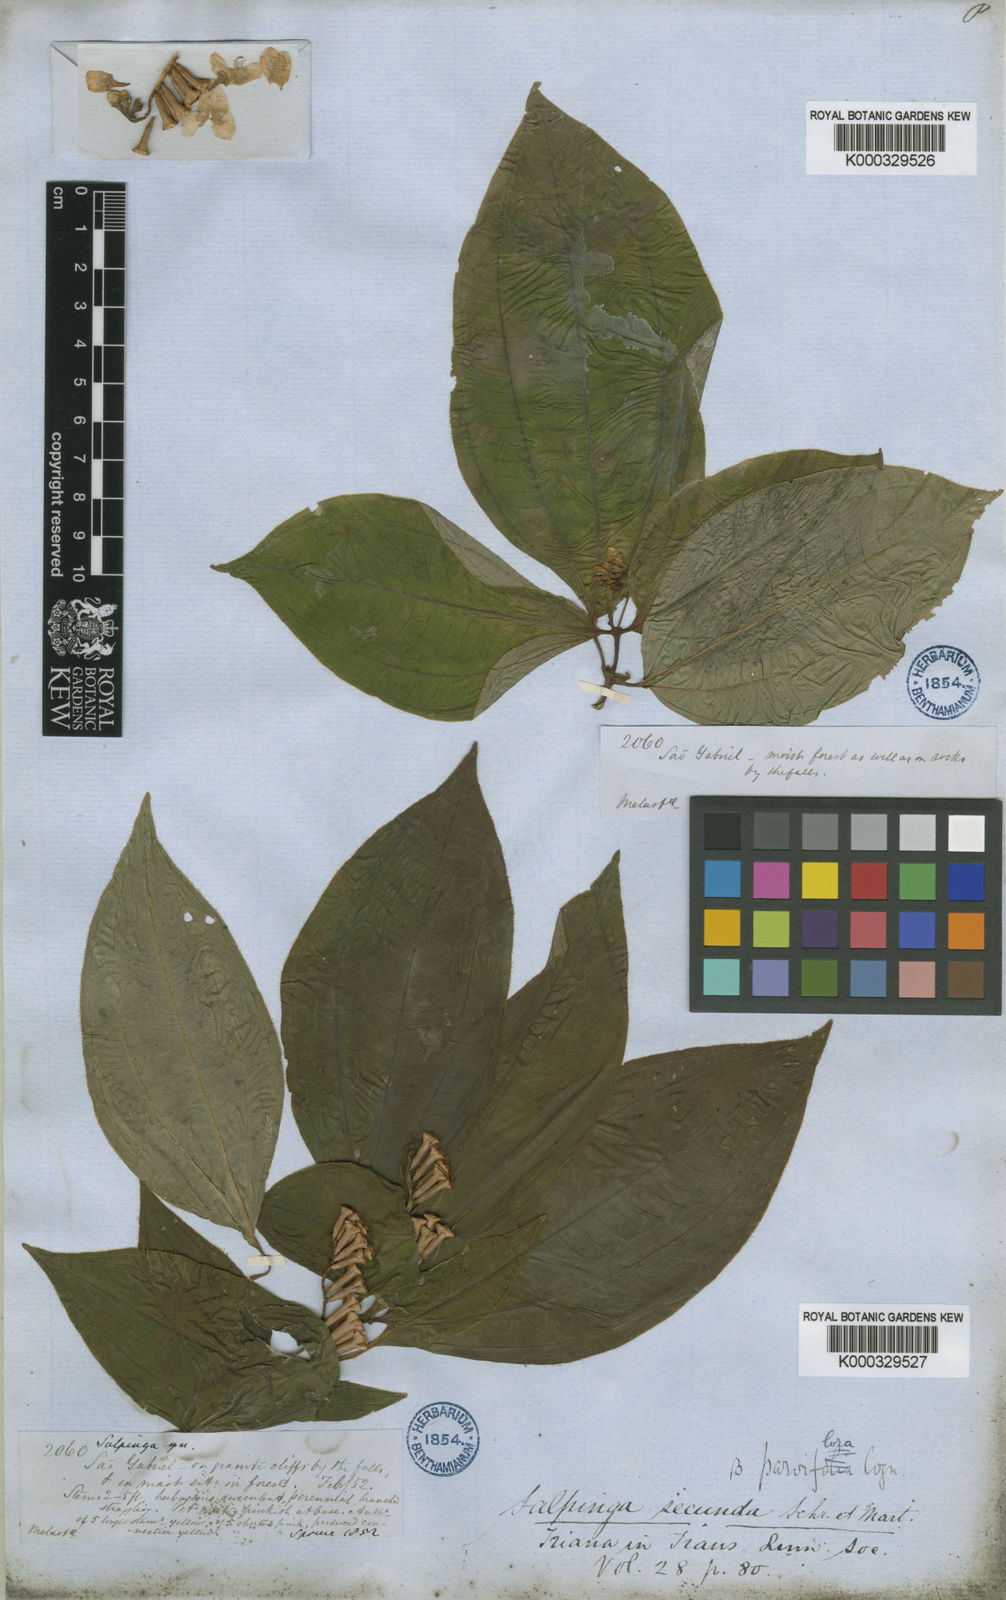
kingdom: Plantae
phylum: Tracheophyta
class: Magnoliopsida
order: Myrtales
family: Melastomataceae
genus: Salpinga
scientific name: Salpinga secunda
